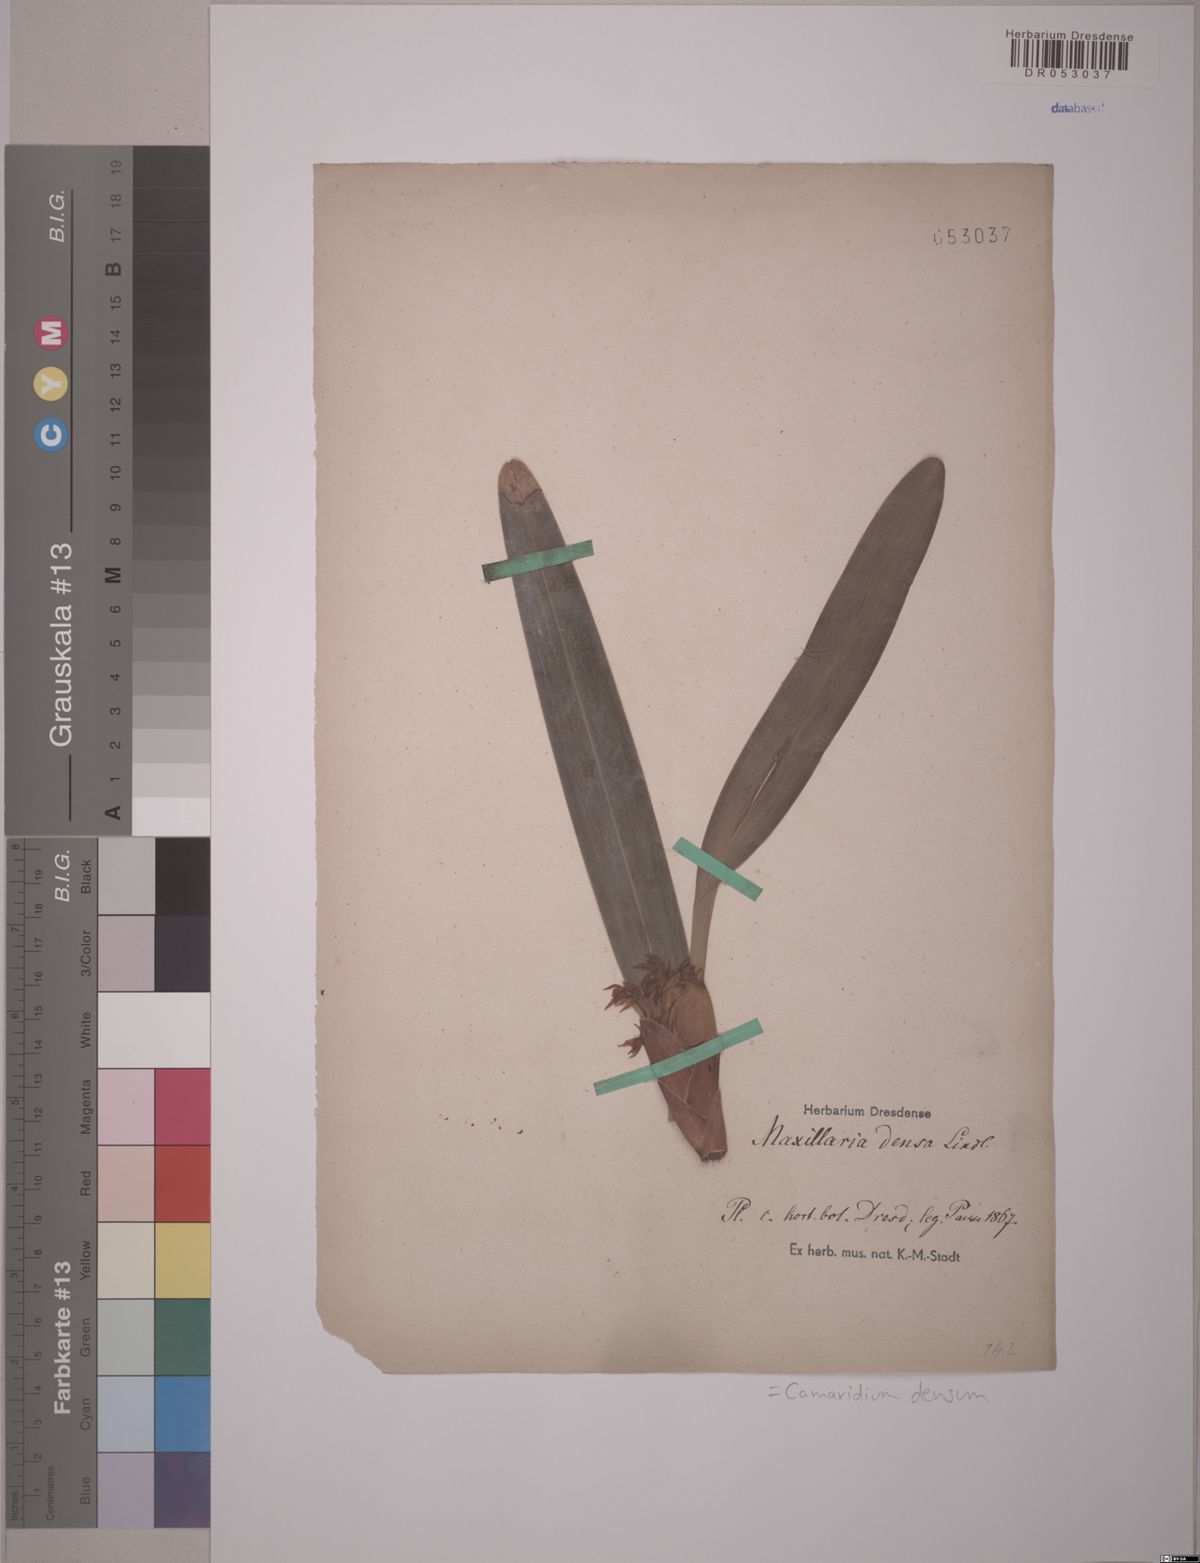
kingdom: Plantae
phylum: Tracheophyta
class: Liliopsida
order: Asparagales
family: Orchidaceae
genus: Maxillaria
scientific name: Maxillaria densa
